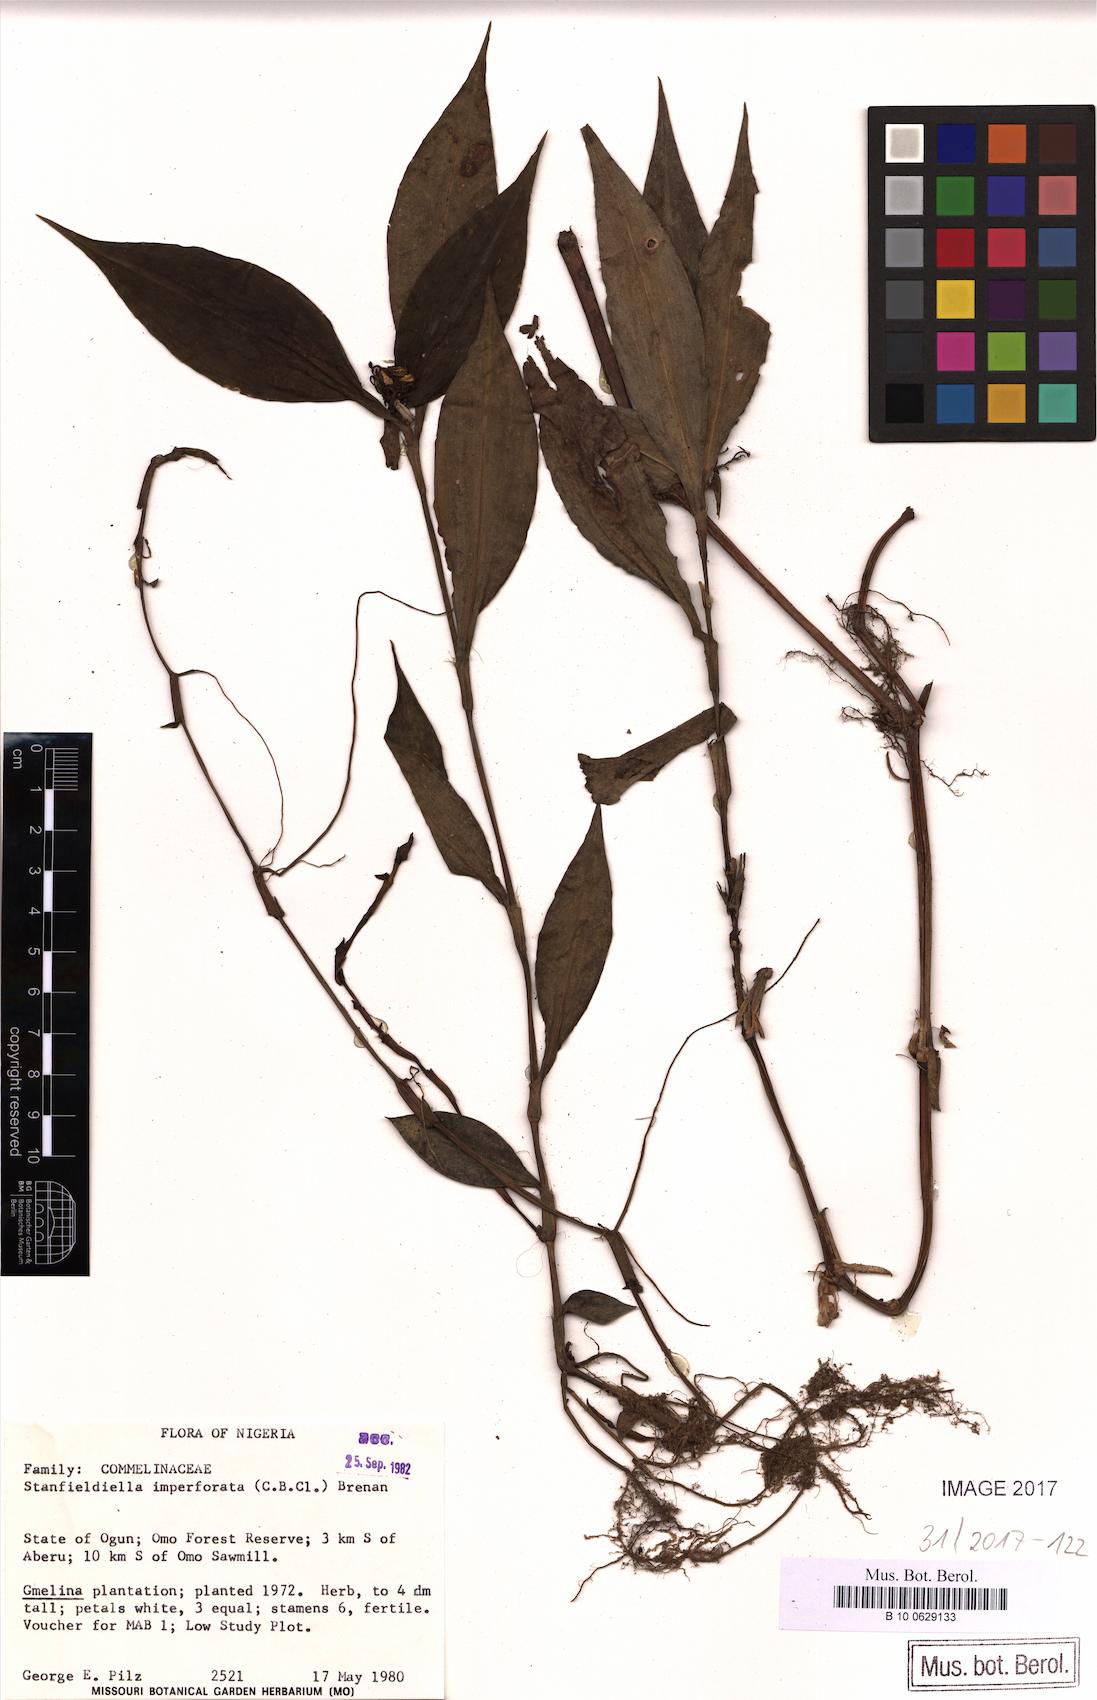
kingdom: Plantae
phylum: Tracheophyta
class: Liliopsida
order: Commelinales
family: Commelinaceae
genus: Stanfieldiella
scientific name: Stanfieldiella imperforata
